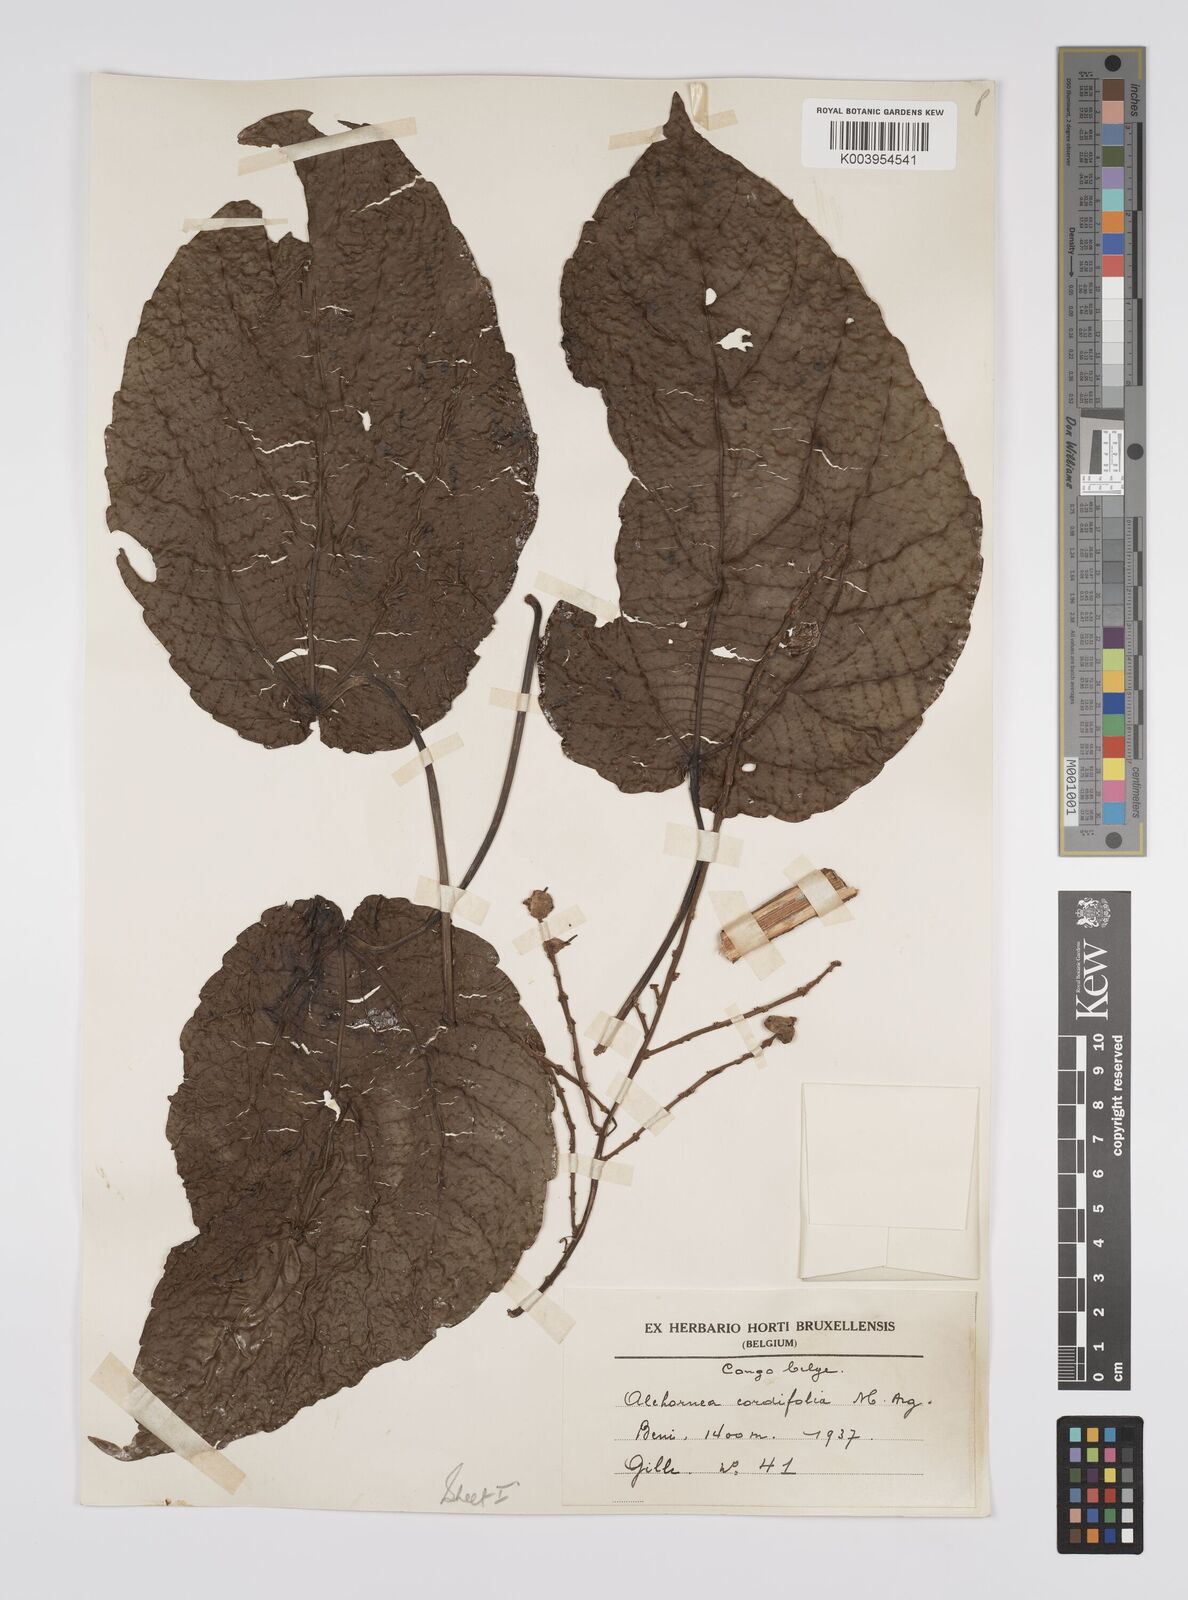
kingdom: Plantae
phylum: Tracheophyta
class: Magnoliopsida
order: Malpighiales
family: Euphorbiaceae
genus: Alchornea
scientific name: Alchornea cordifolia
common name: Christmasbush
